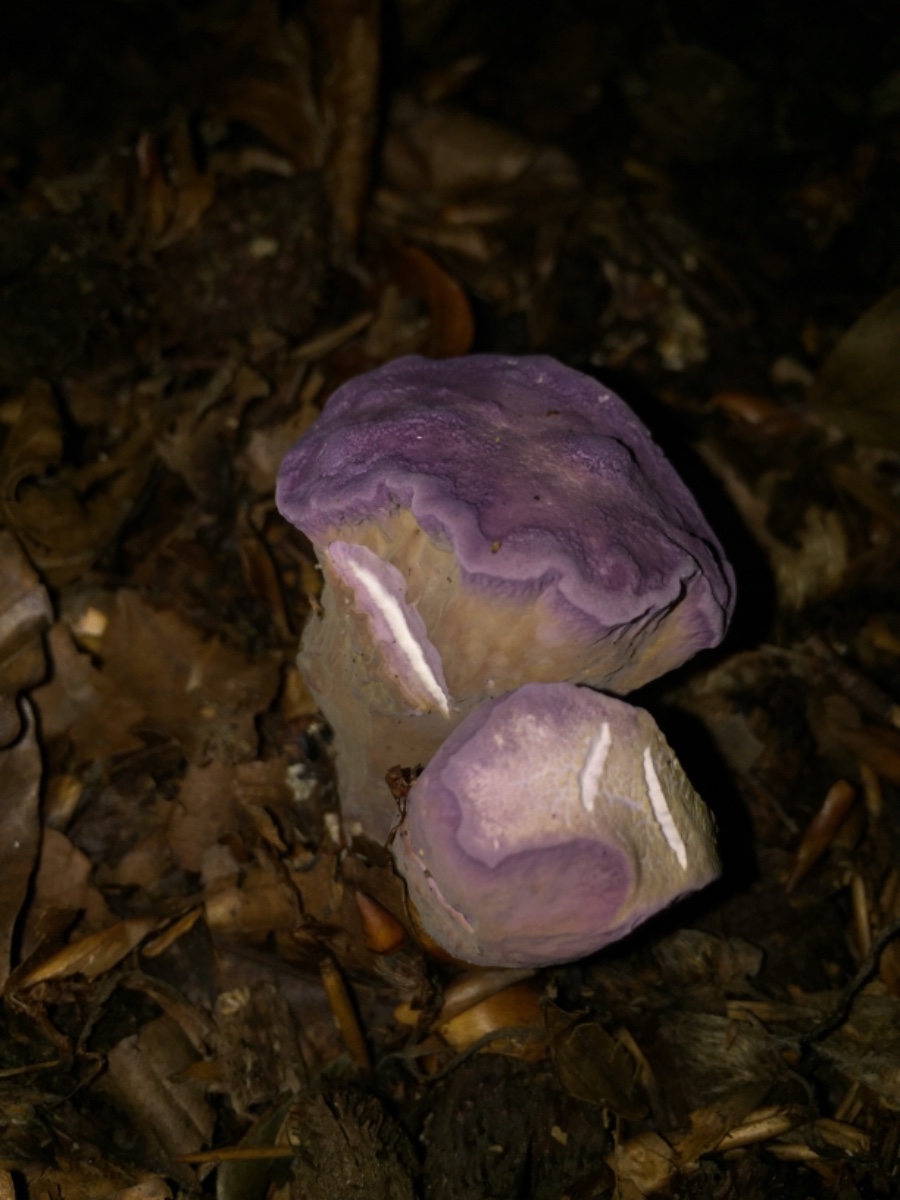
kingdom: Fungi
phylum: Basidiomycota
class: Agaricomycetes
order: Gomphales
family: Gomphaceae
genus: Gomphus
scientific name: Gomphus clavatus
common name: køllekantarel
